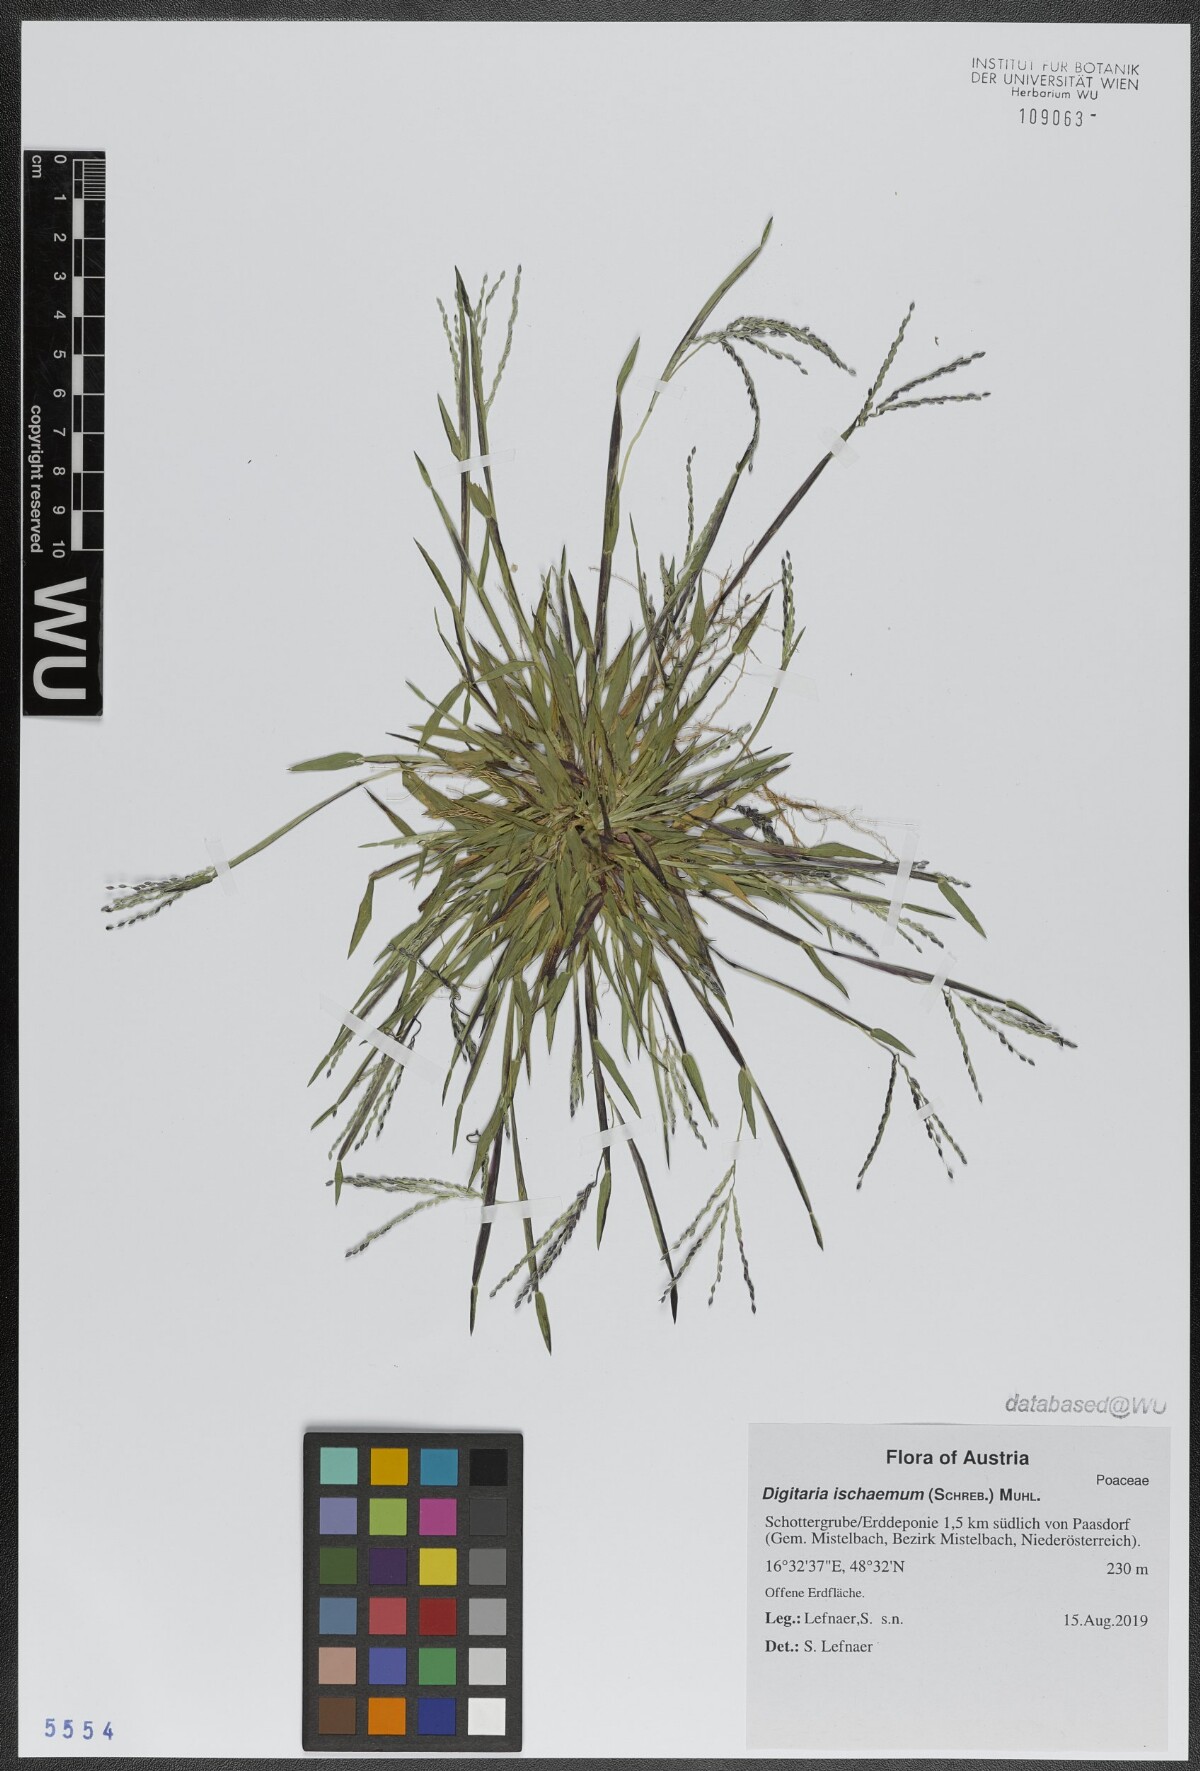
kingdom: Plantae
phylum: Tracheophyta
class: Liliopsida
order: Poales
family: Poaceae
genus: Digitaria
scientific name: Digitaria ischaemum
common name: Smooth crabgrass
